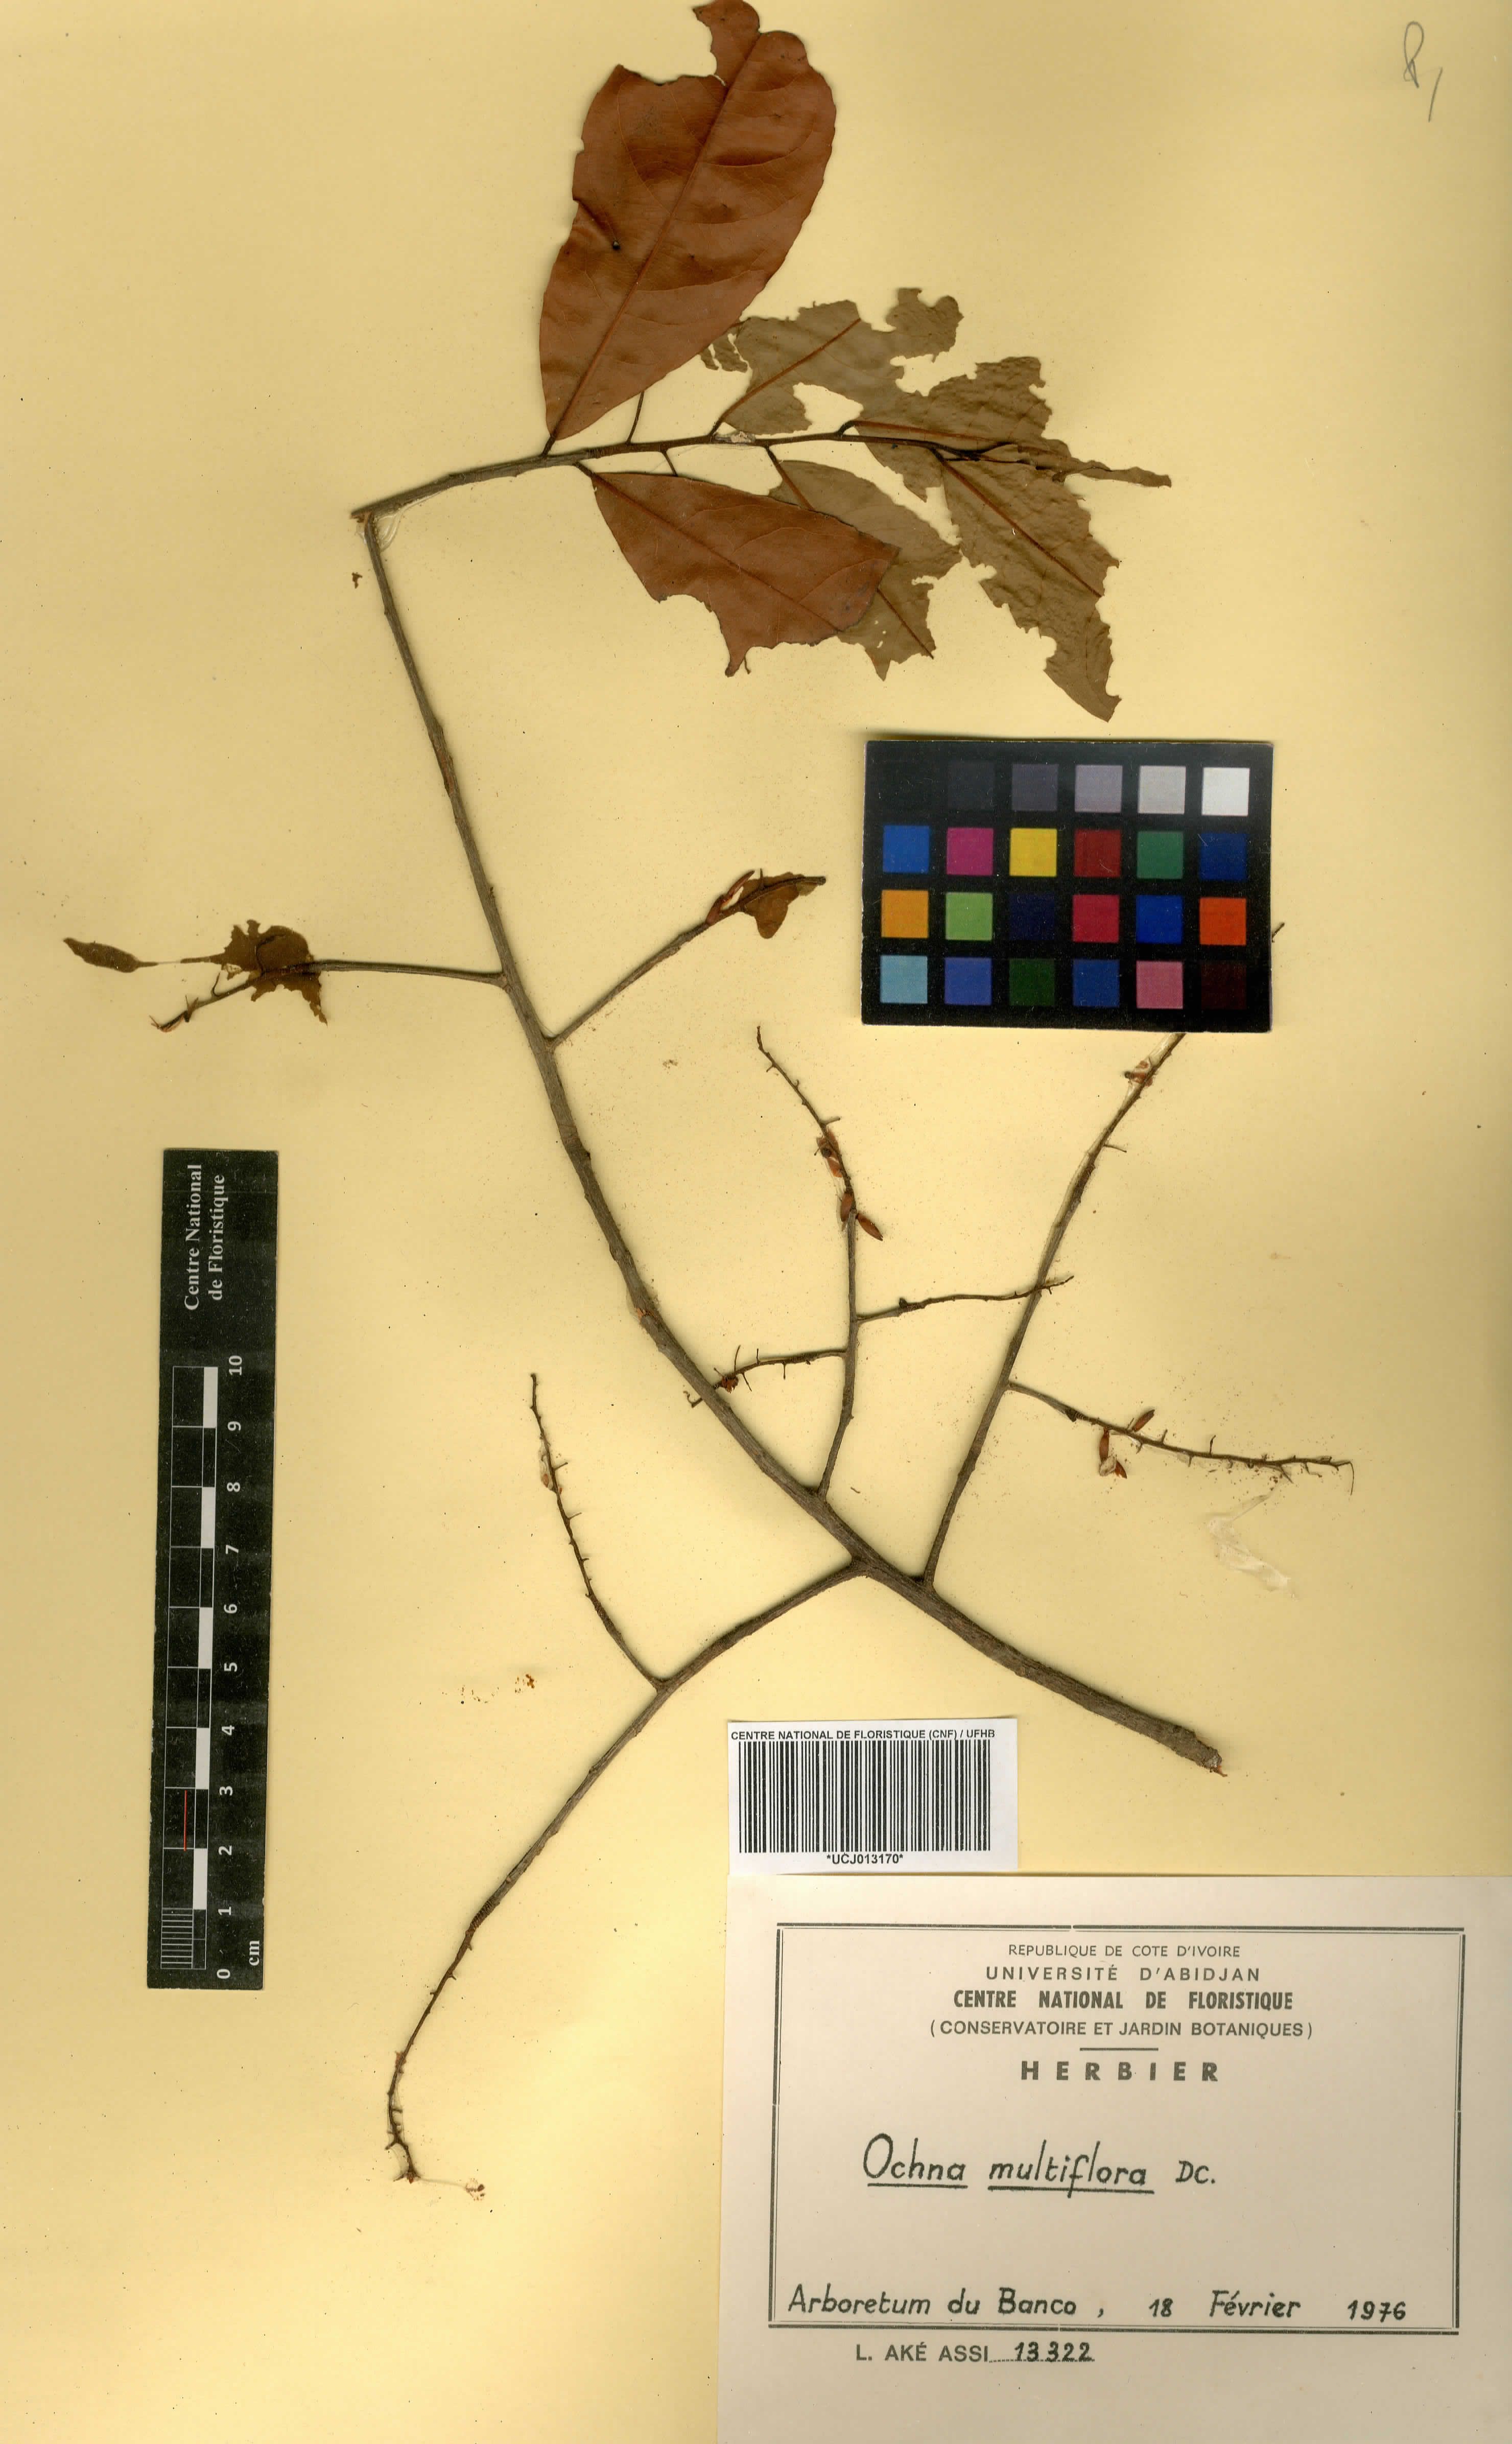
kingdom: Plantae
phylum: Tracheophyta
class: Magnoliopsida
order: Malpighiales
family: Ochnaceae
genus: Ochna
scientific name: Ochna multiflora
